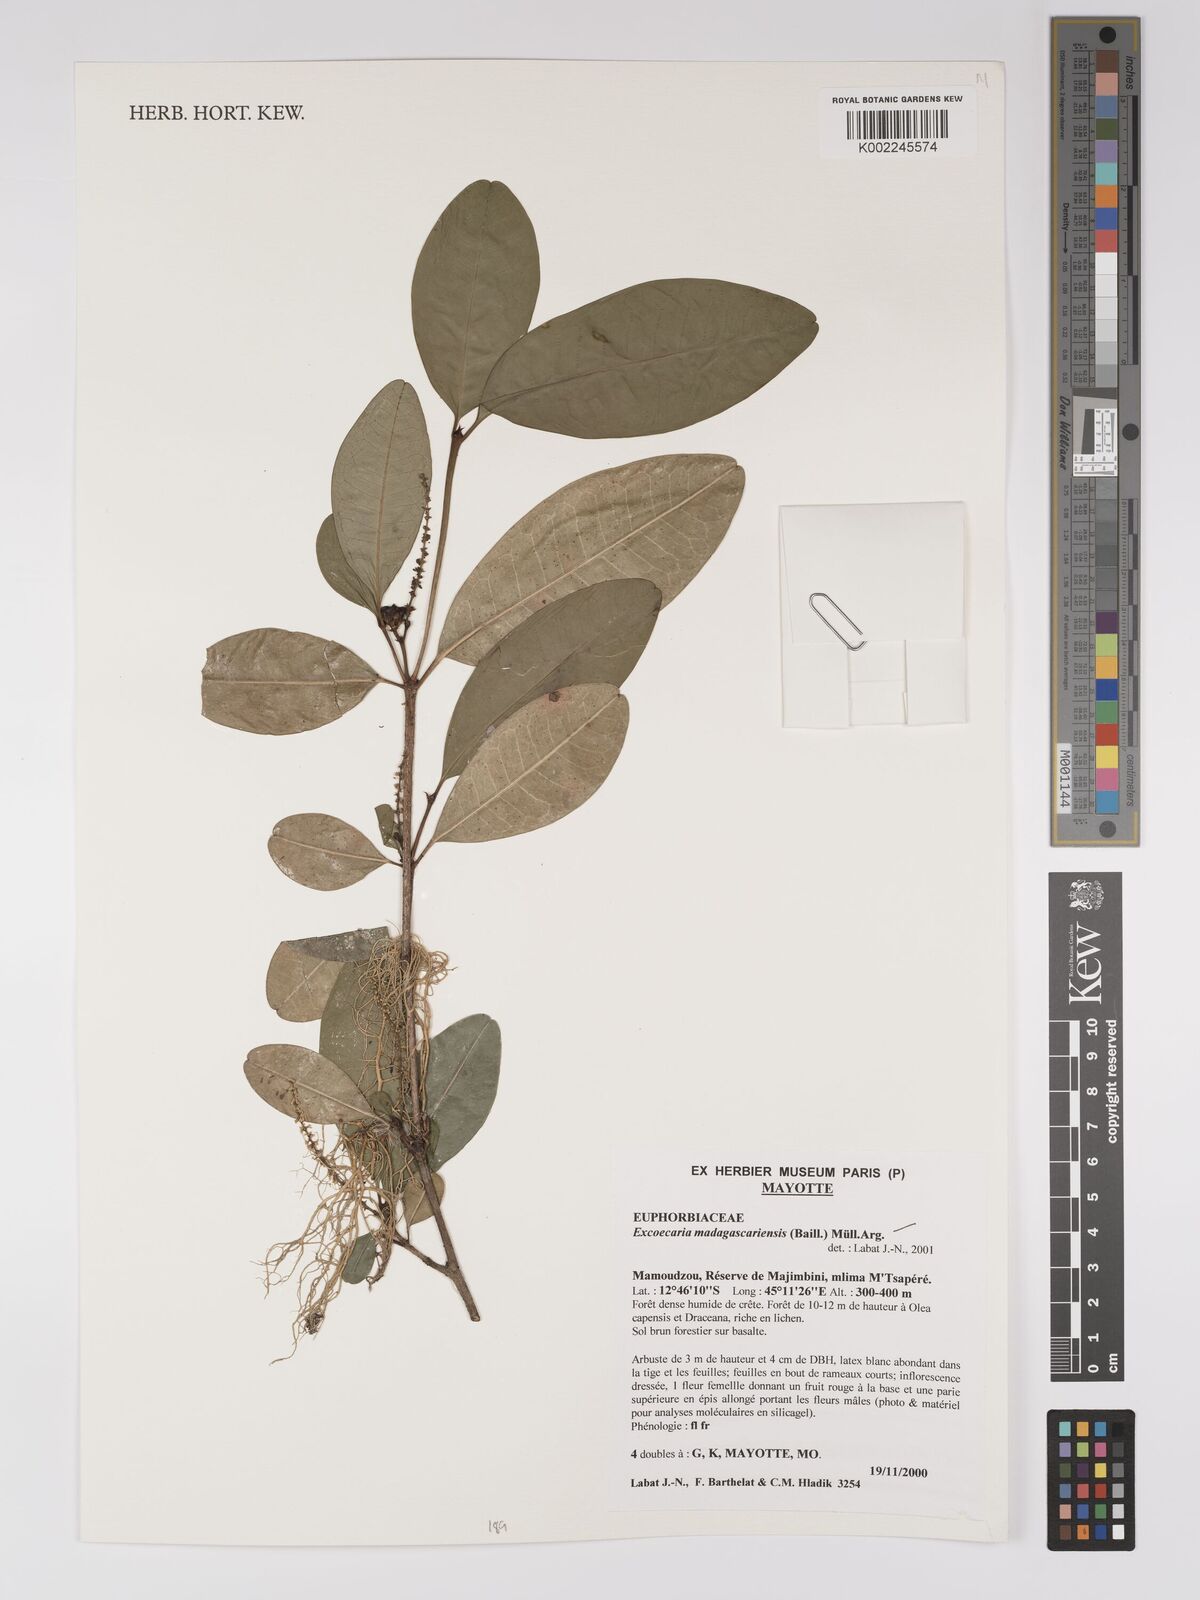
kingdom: Plantae
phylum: Tracheophyta
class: Magnoliopsida
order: Malpighiales
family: Euphorbiaceae
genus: Excoecaria
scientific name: Excoecaria madagascariensis
